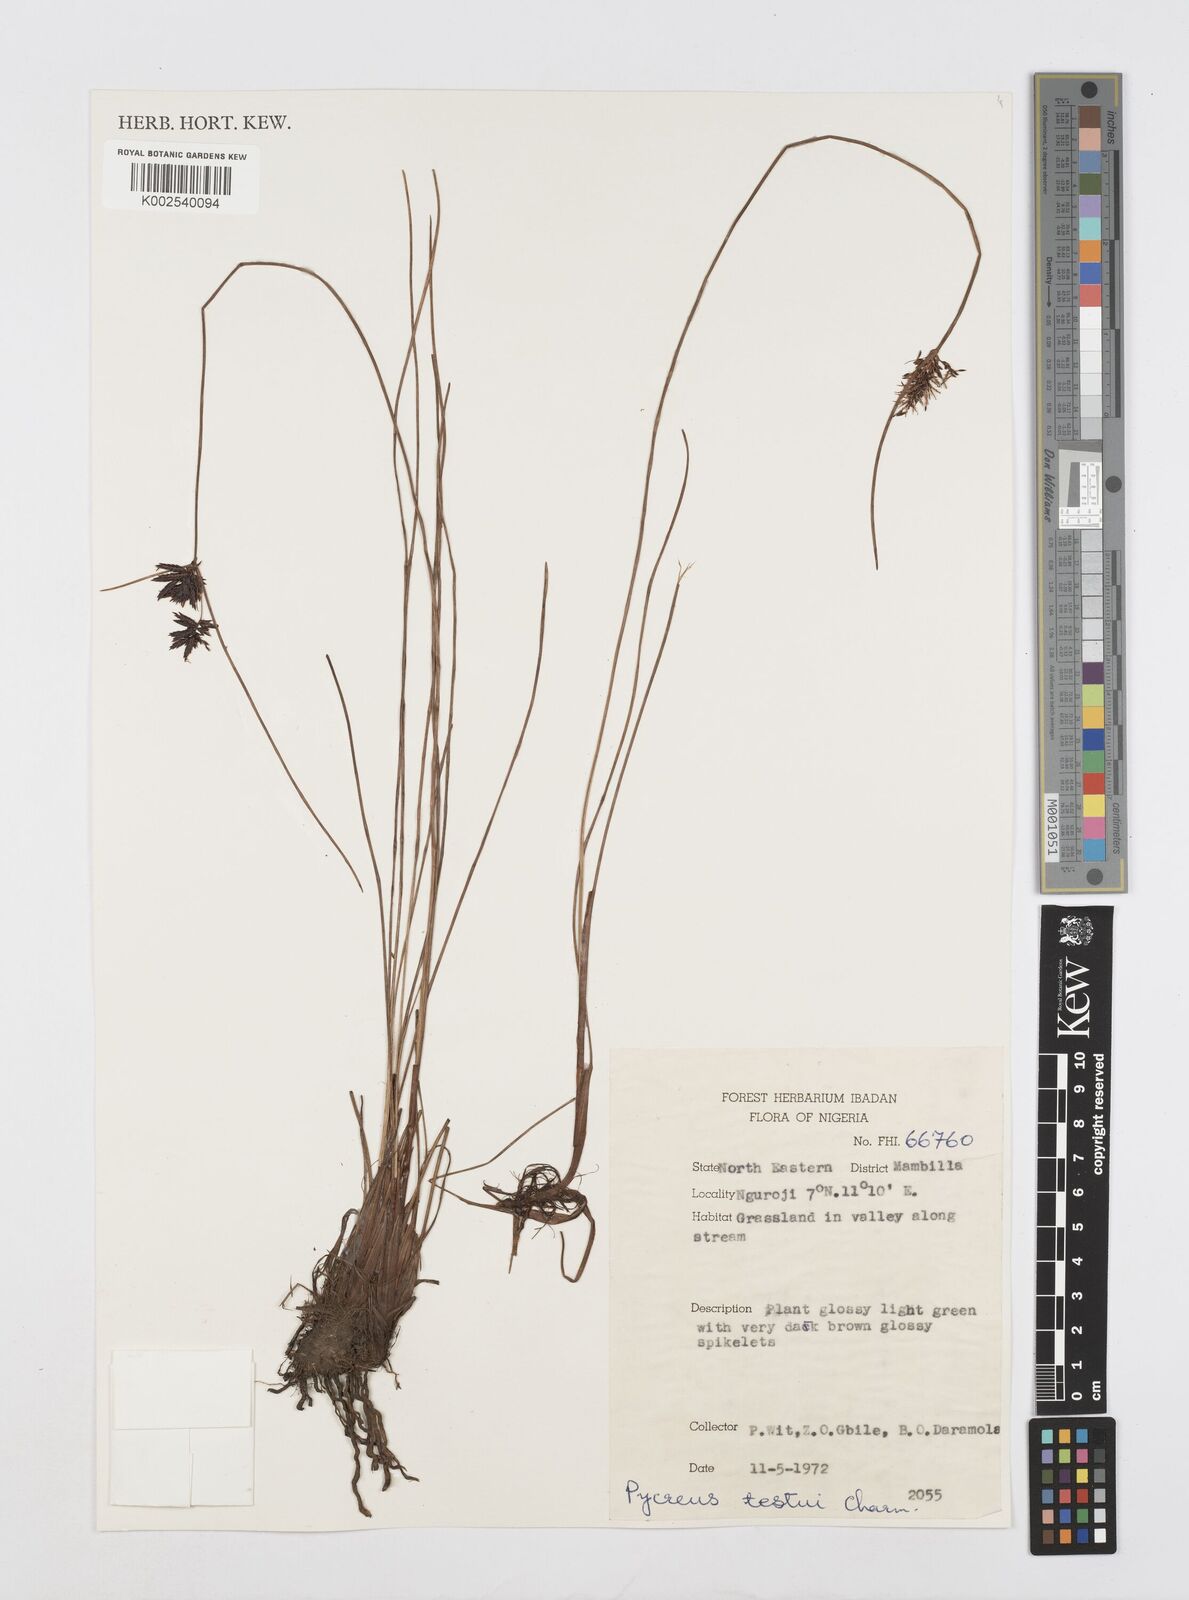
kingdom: Plantae
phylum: Tracheophyta
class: Liliopsida
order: Poales
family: Cyperaceae
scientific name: Cyperaceae
